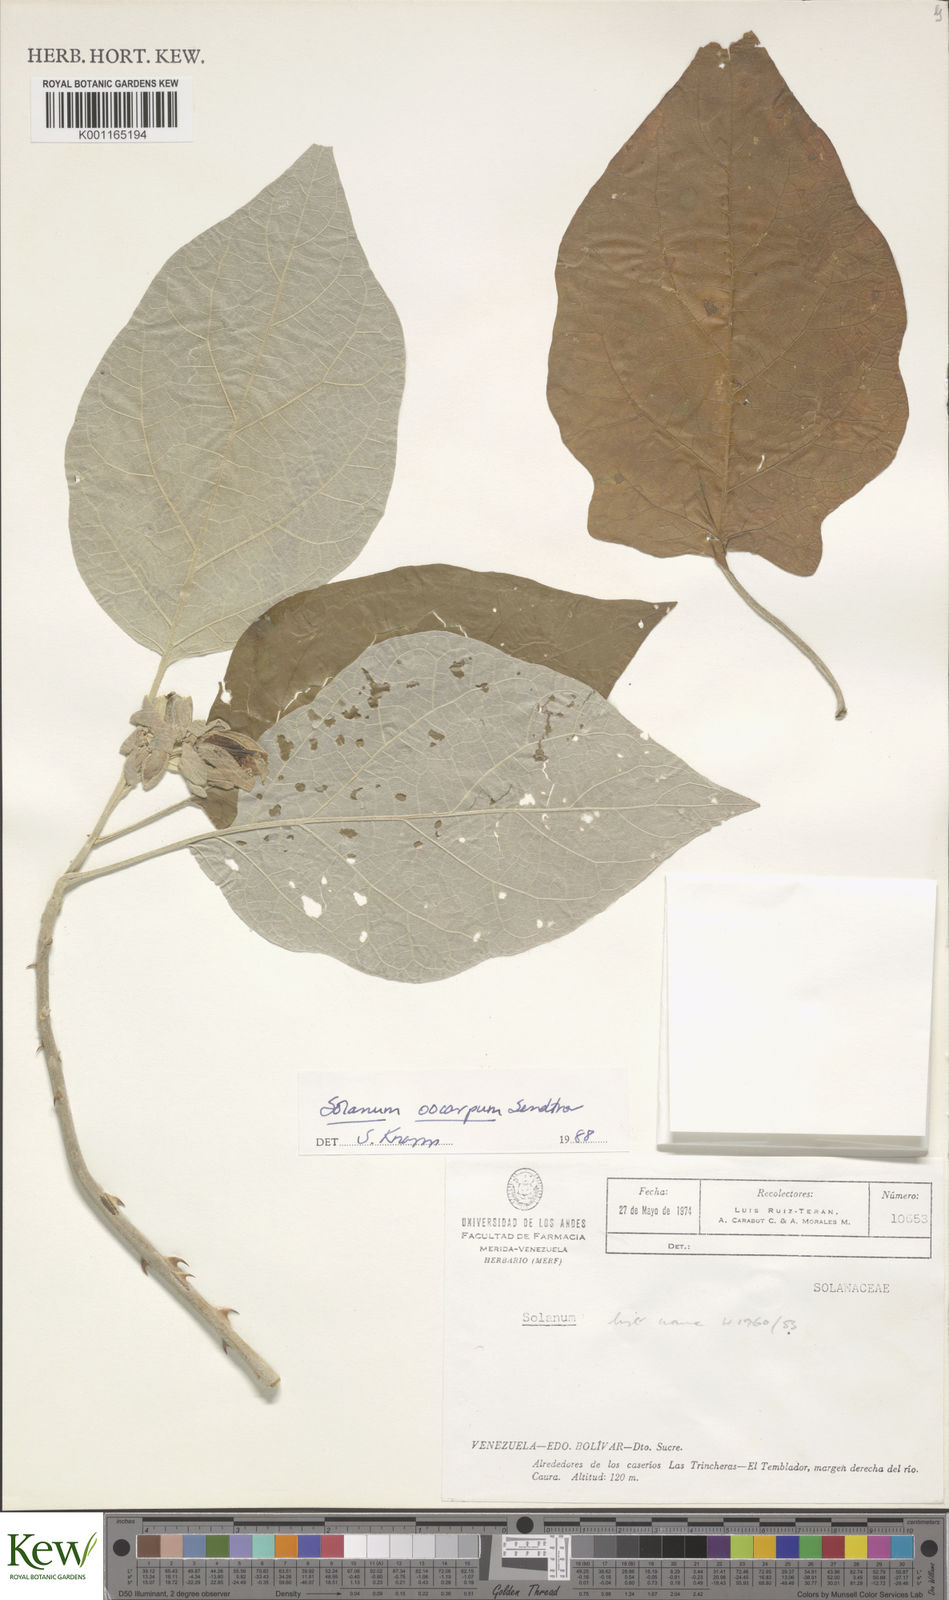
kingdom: Plantae
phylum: Tracheophyta
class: Magnoliopsida
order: Solanales
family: Solanaceae
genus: Solanum
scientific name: Solanum oocarpum
